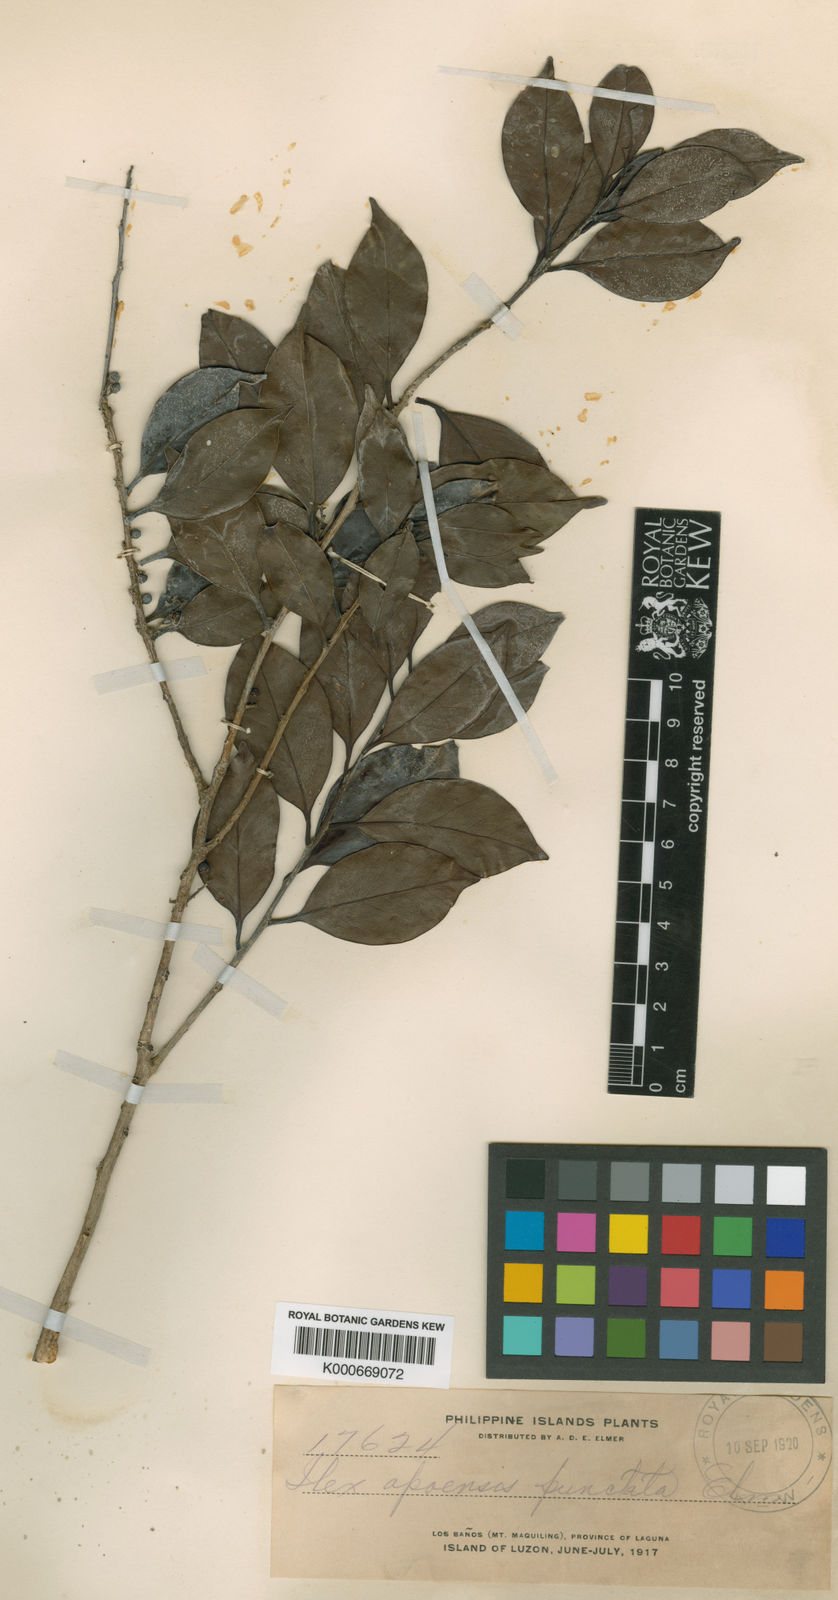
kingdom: Plantae
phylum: Tracheophyta
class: Magnoliopsida
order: Aquifoliales
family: Aquifoliaceae
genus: Ilex
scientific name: Ilex malaccensis
